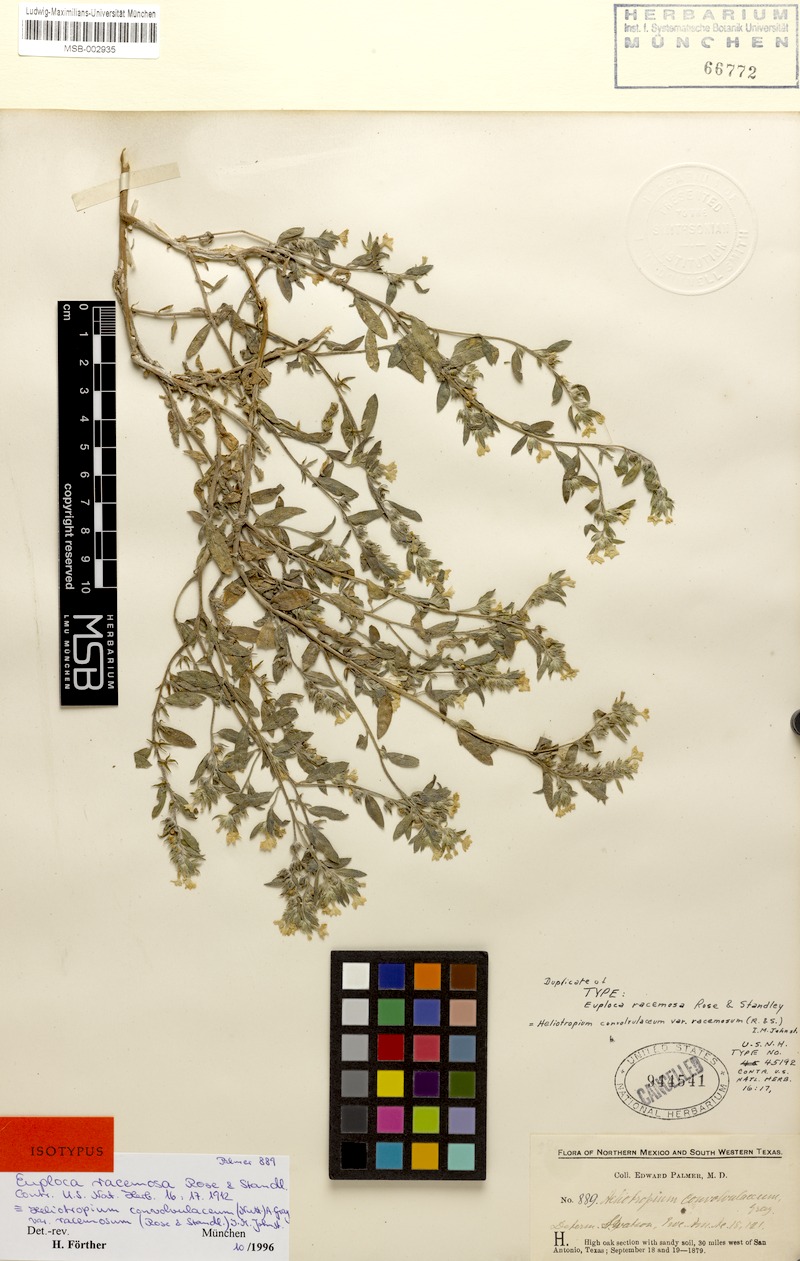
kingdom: Plantae
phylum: Tracheophyta
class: Magnoliopsida
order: Boraginales
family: Heliotropiaceae
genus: Euploca
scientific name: Euploca convolvulacea
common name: Bindweed heliotrope
